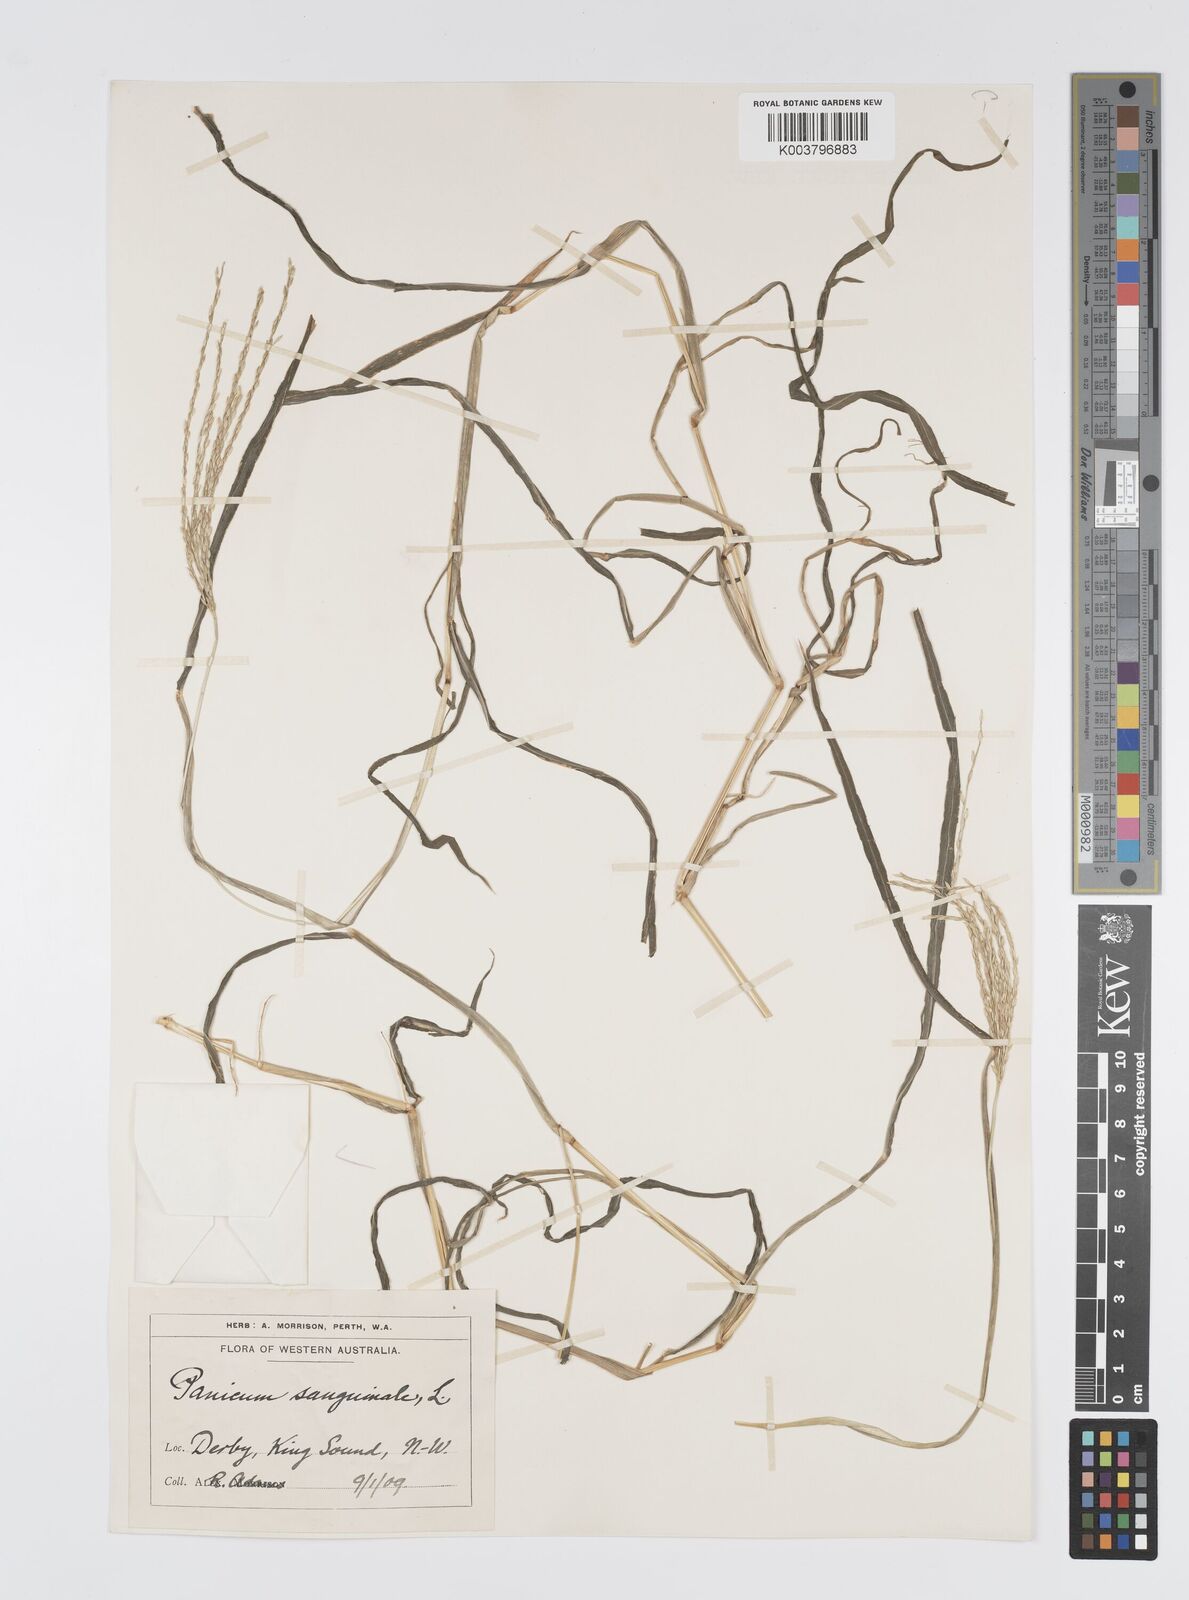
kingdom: Plantae
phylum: Tracheophyta
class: Liliopsida
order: Poales
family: Poaceae
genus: Digitaria
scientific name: Digitaria bicornis
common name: Asian crabgrass
